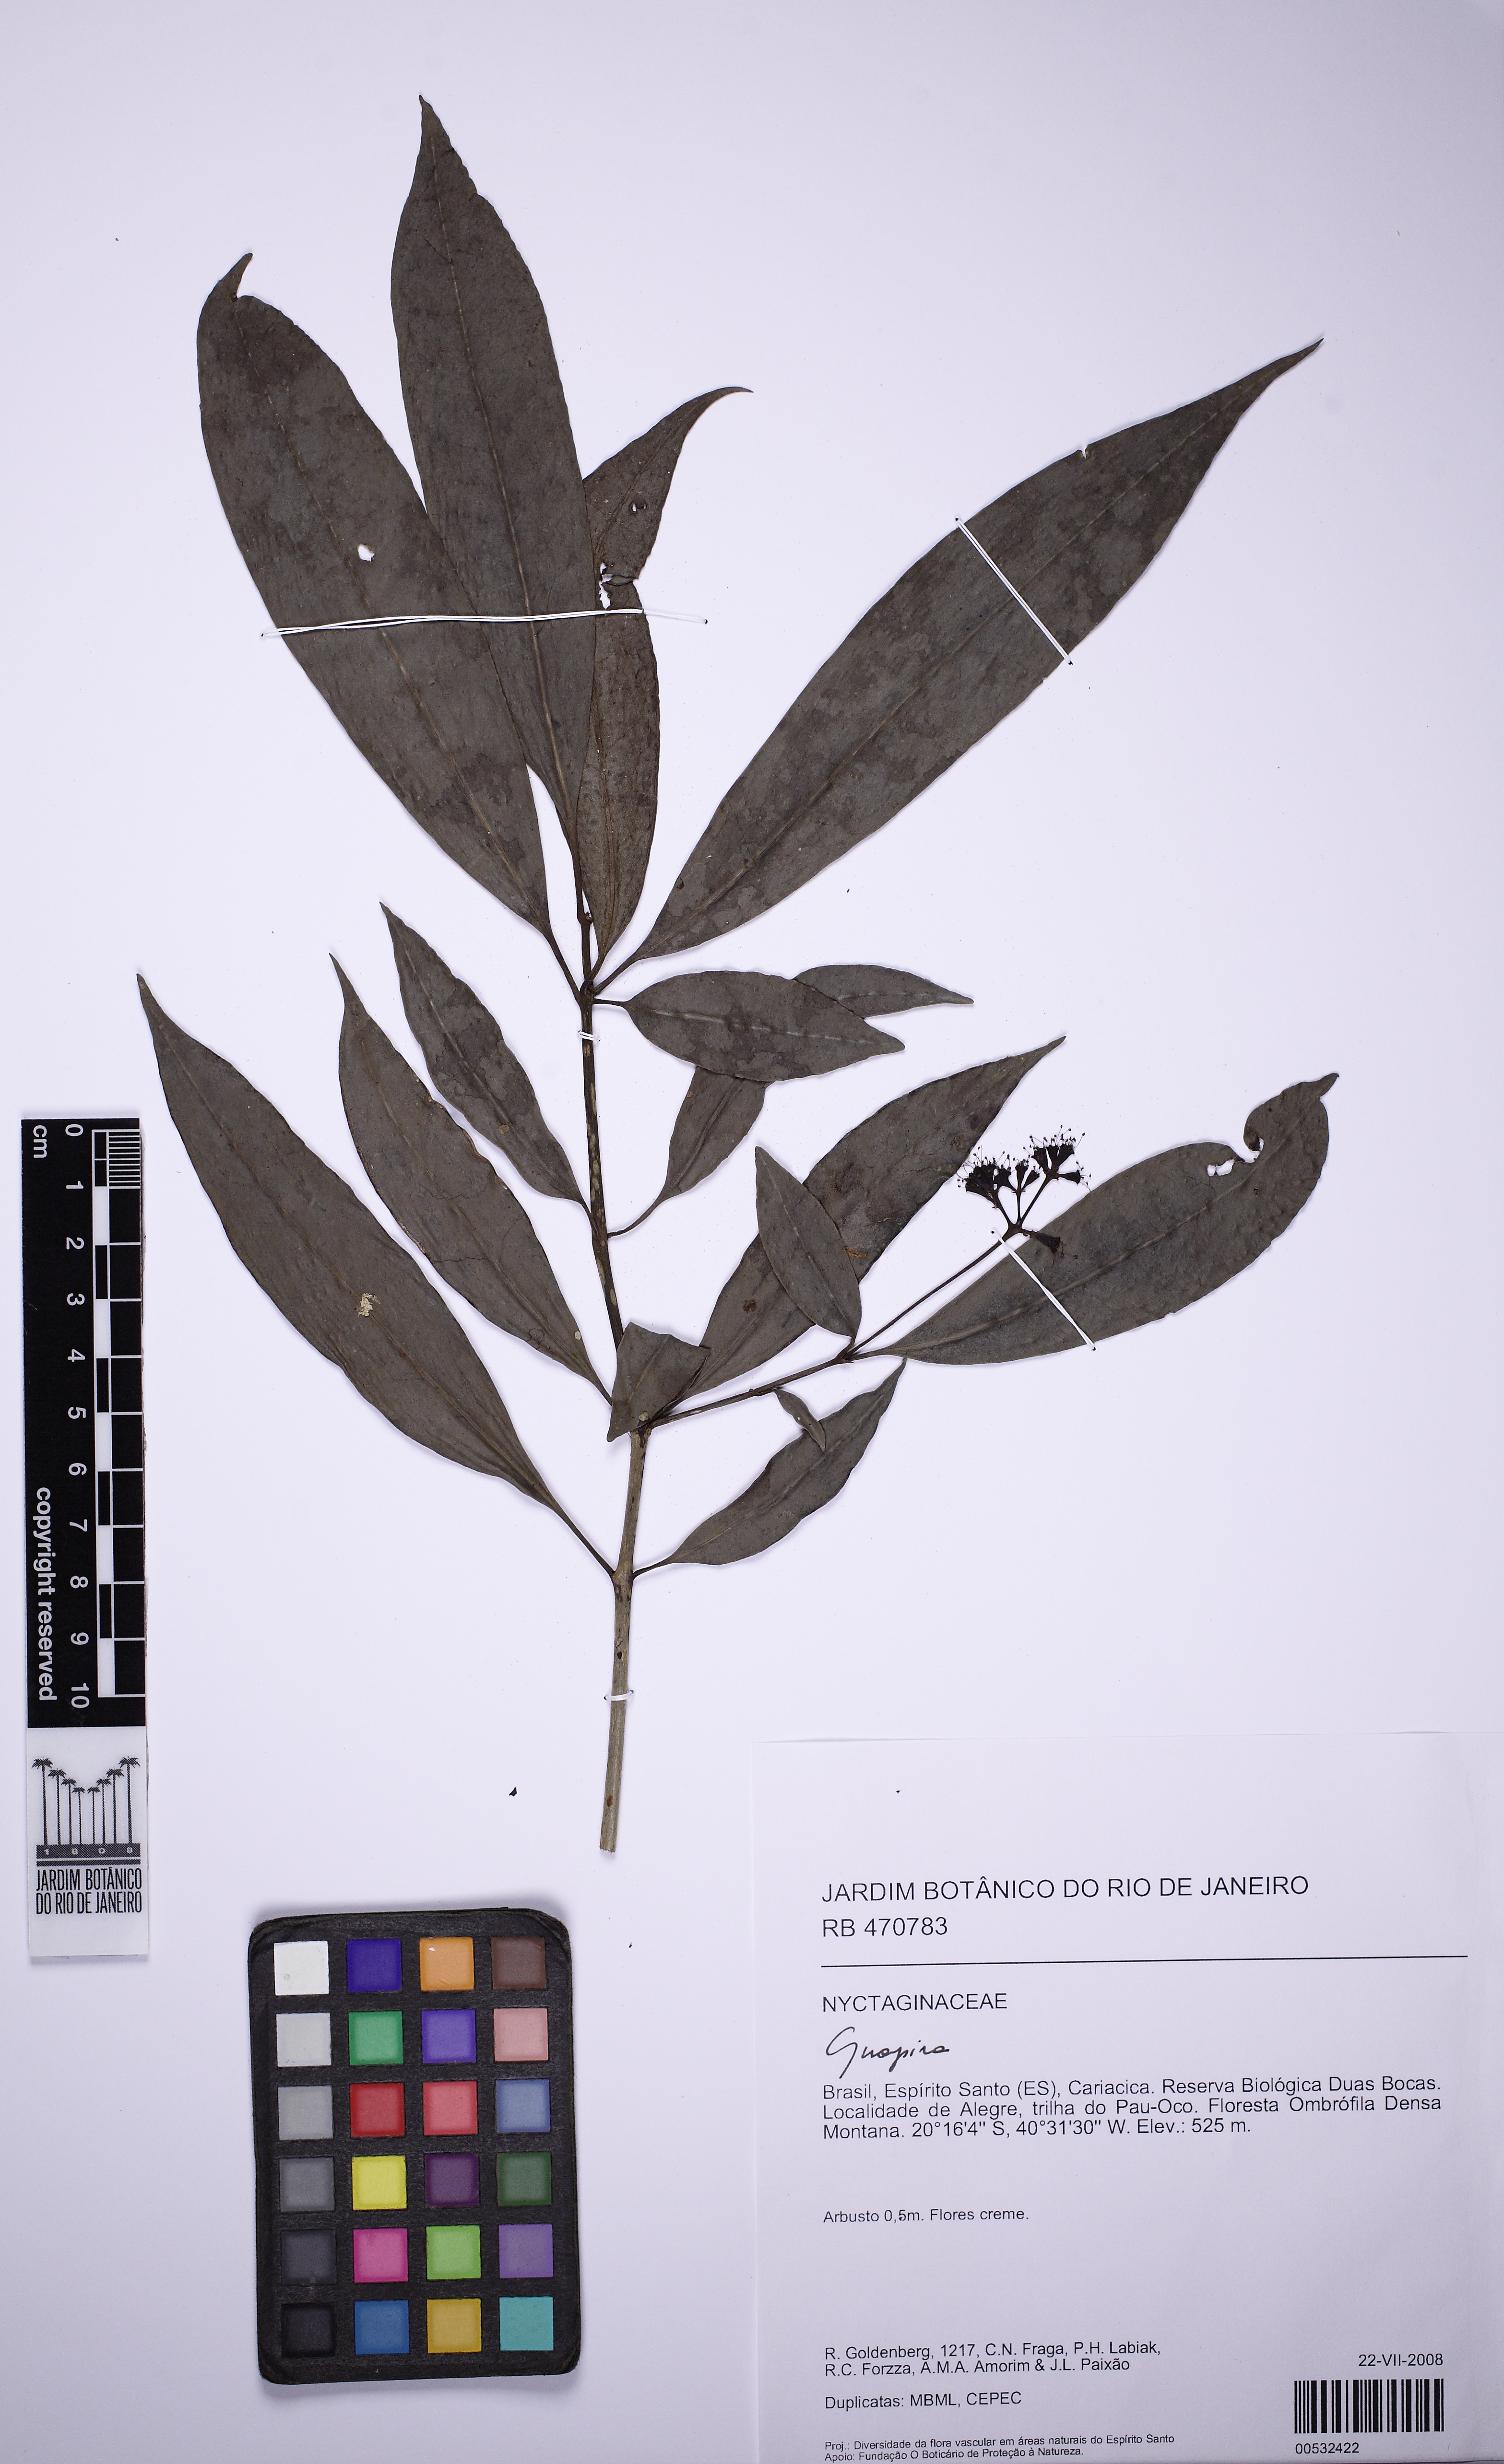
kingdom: Plantae
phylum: Tracheophyta
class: Magnoliopsida
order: Caryophyllales
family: Nyctaginaceae
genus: Guapira
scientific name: Guapira opposita
